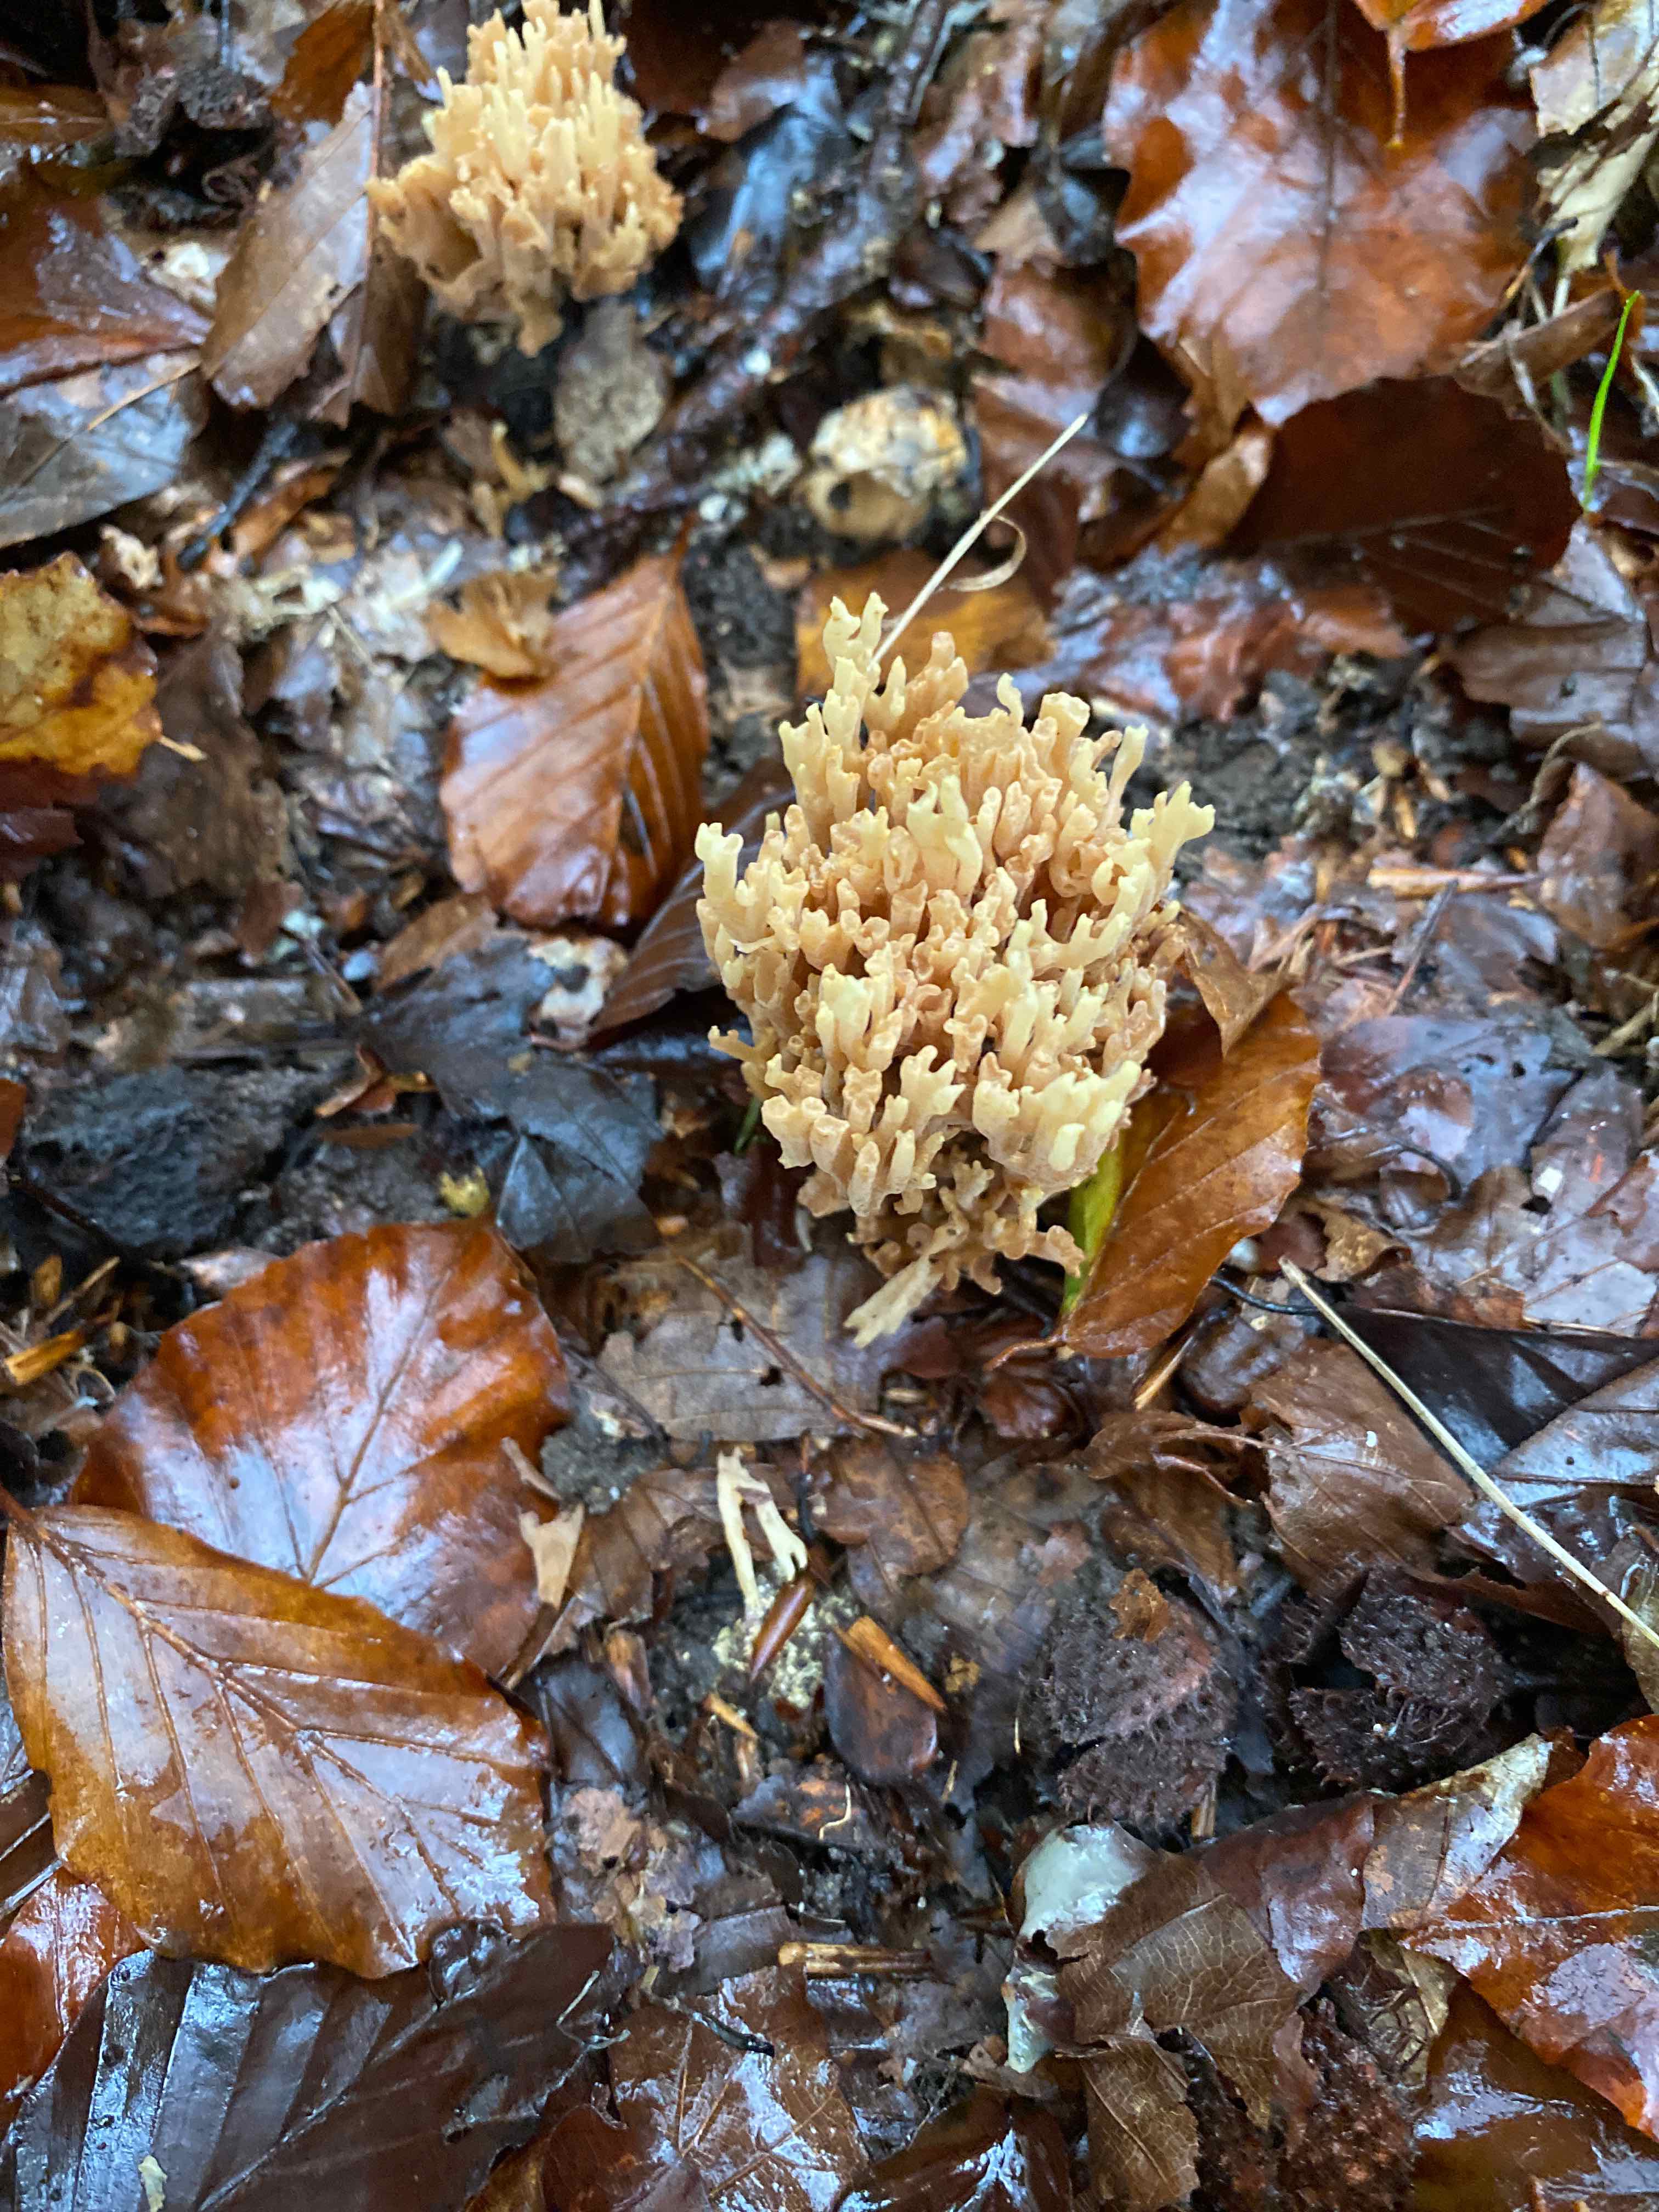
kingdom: Fungi
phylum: Basidiomycota
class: Agaricomycetes
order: Gomphales
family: Gomphaceae
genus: Ramaria
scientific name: Ramaria stricta
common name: rank koralsvamp
